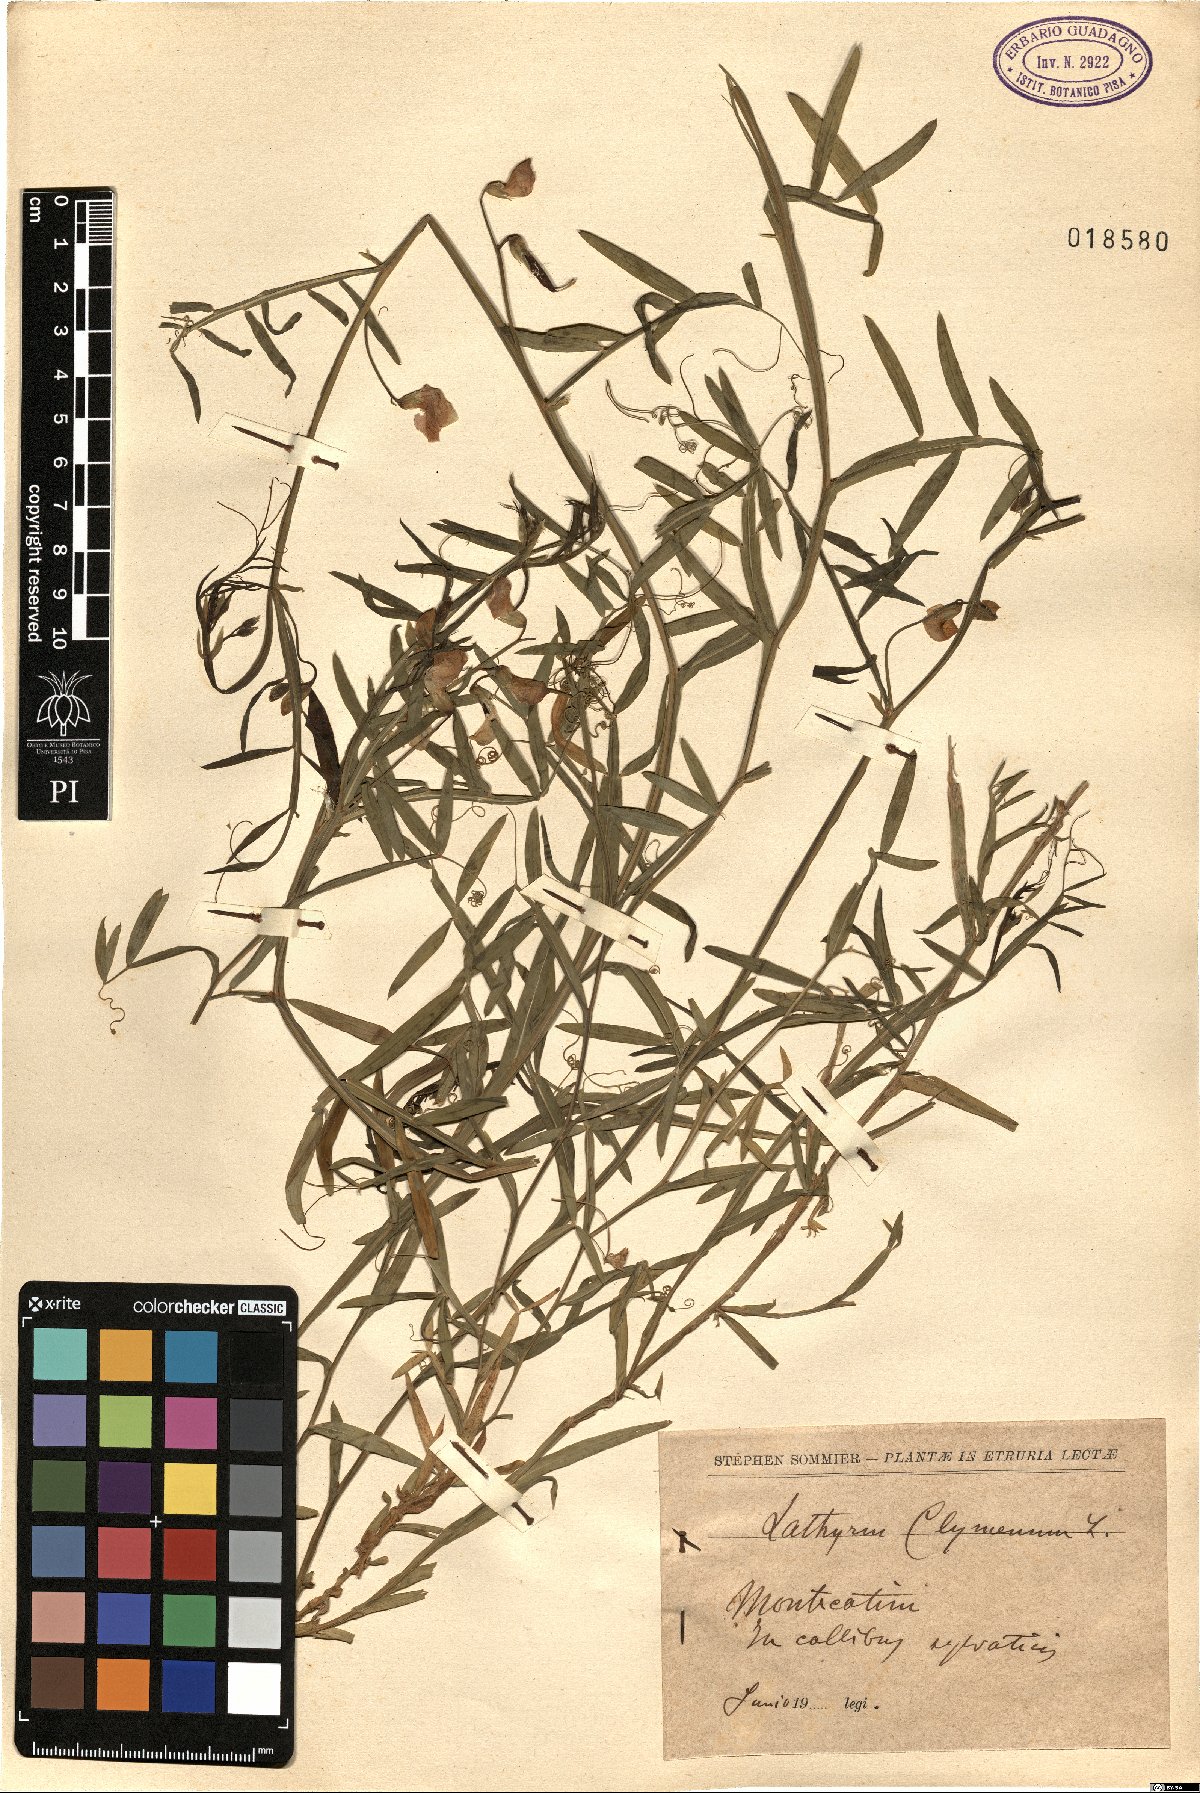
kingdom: Plantae
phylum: Tracheophyta
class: Magnoliopsida
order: Fabales
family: Fabaceae
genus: Lathyrus
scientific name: Lathyrus clymenum
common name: Spanish vetchling
